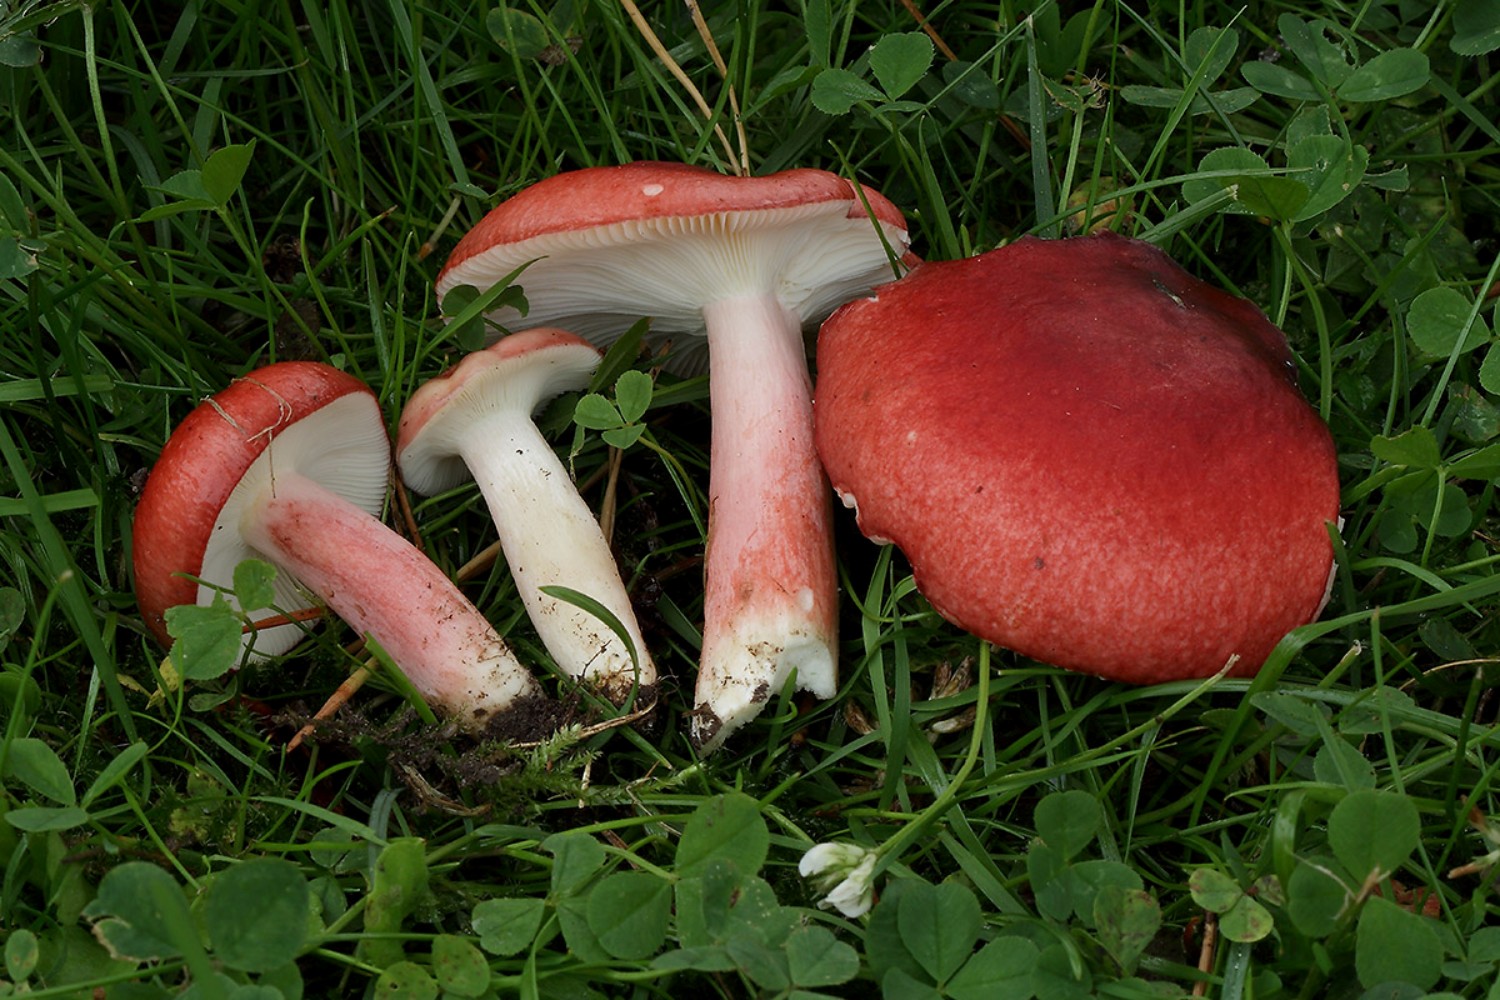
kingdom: Fungi
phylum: Basidiomycota
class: Agaricomycetes
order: Russulales
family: Russulaceae
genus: Russula
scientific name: Russula sanguinea
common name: blodrød skørhat
